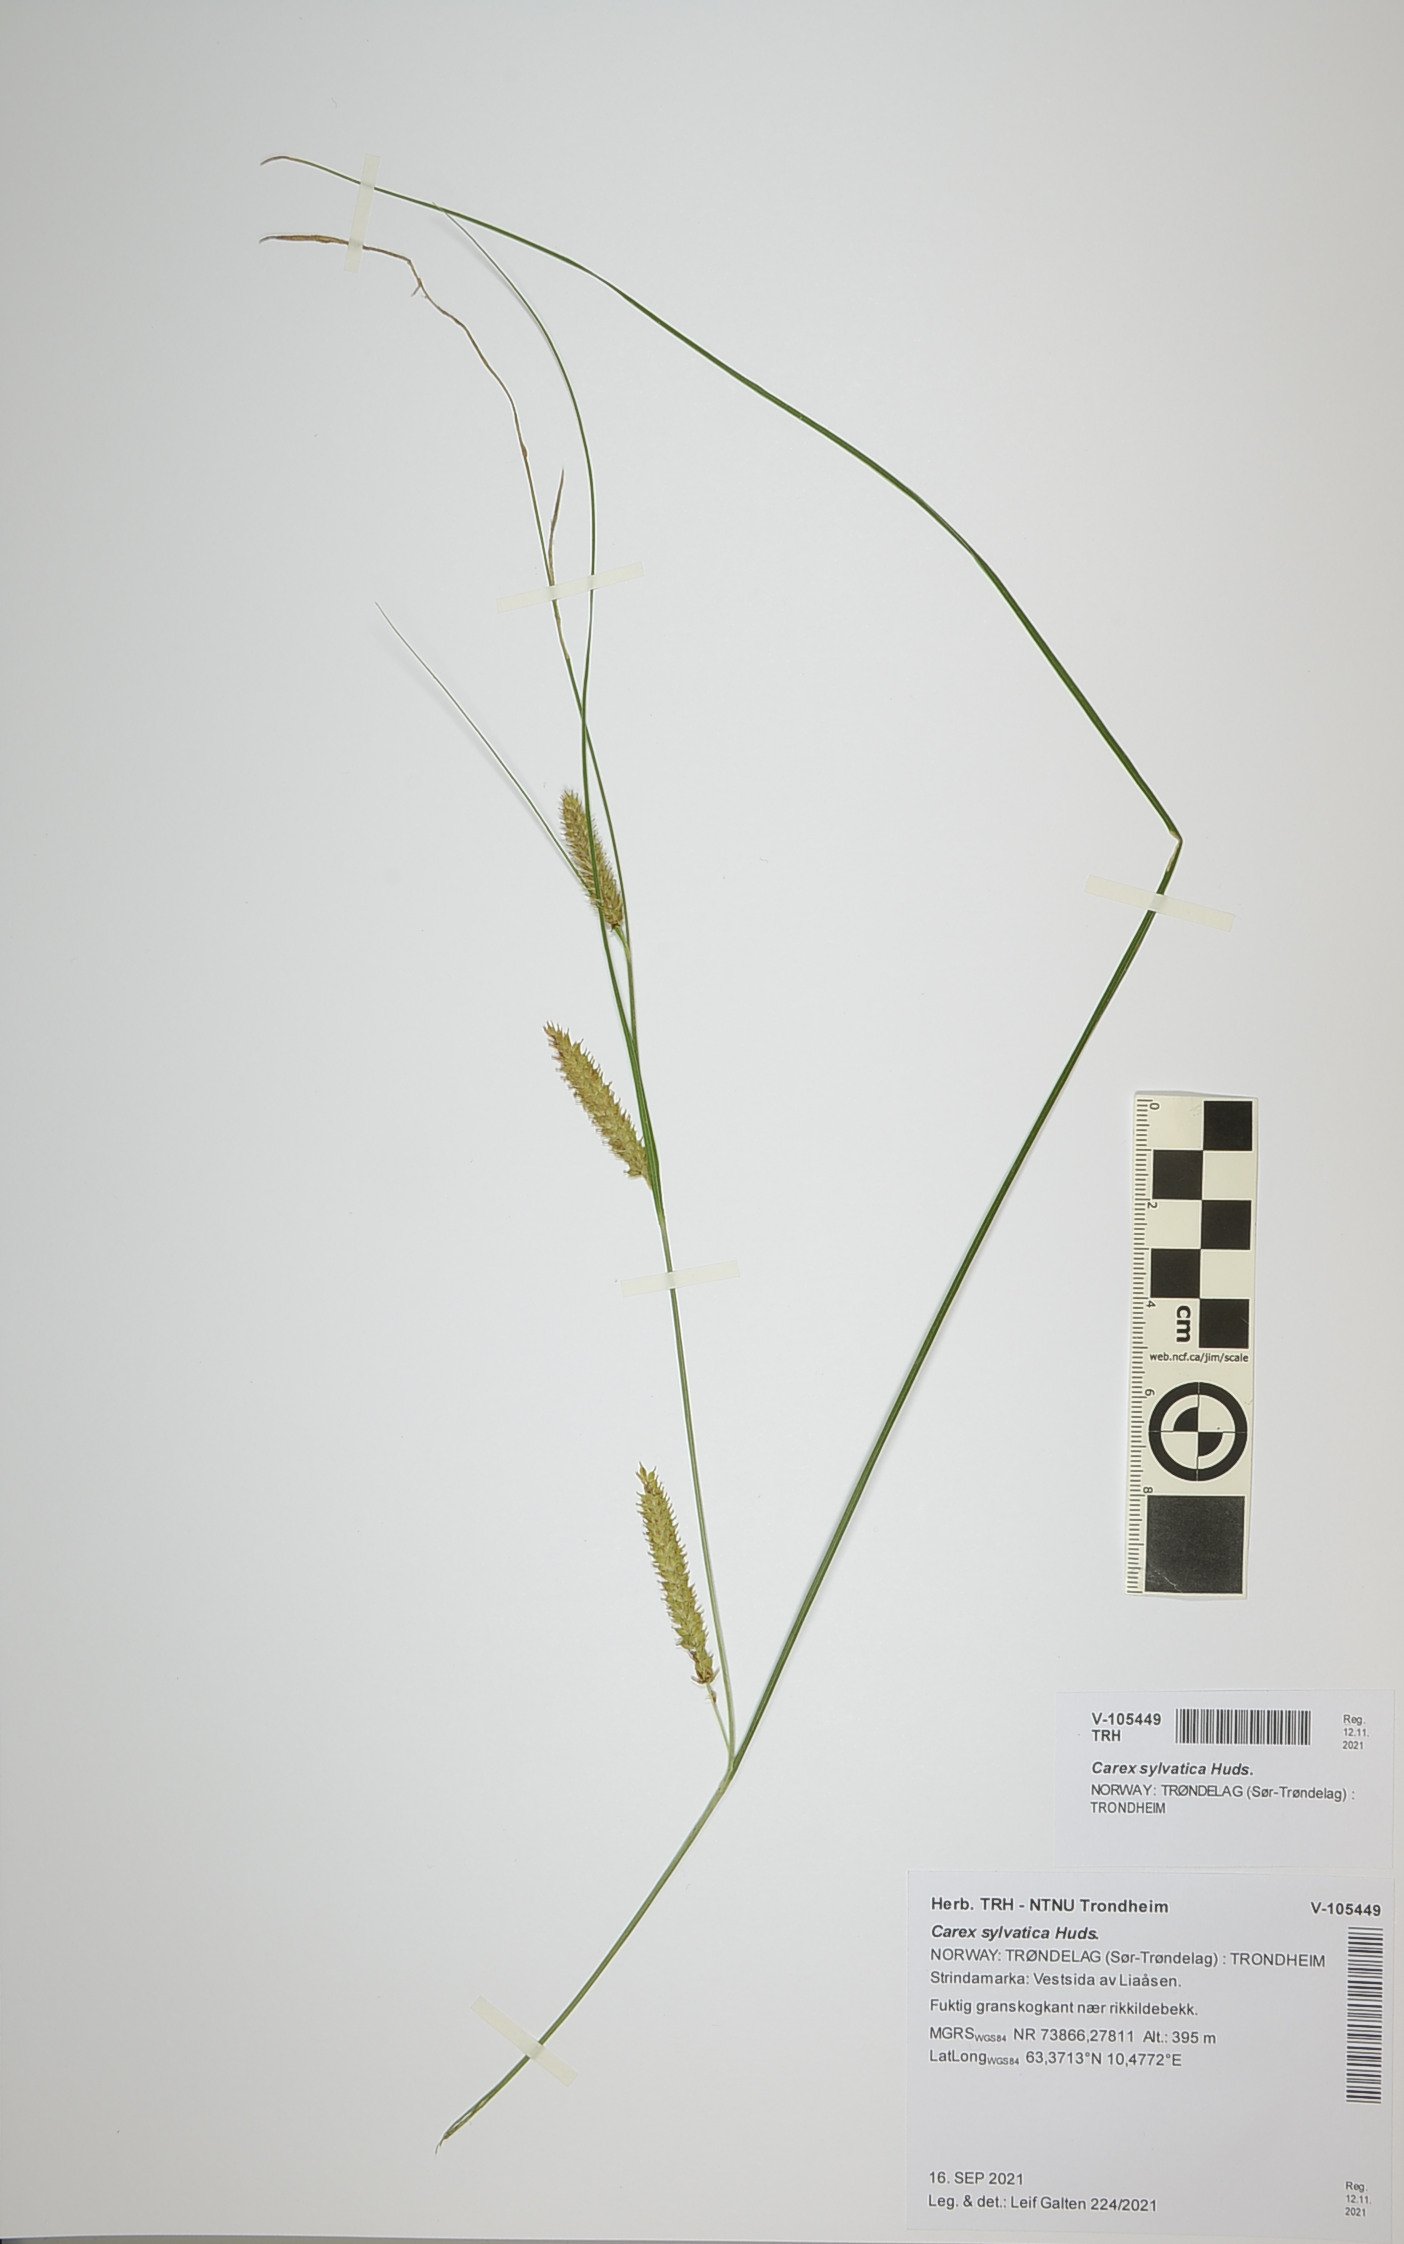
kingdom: Plantae
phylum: Tracheophyta
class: Liliopsida
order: Poales
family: Cyperaceae
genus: Carex
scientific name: Carex sylvatica
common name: Wood-sedge
